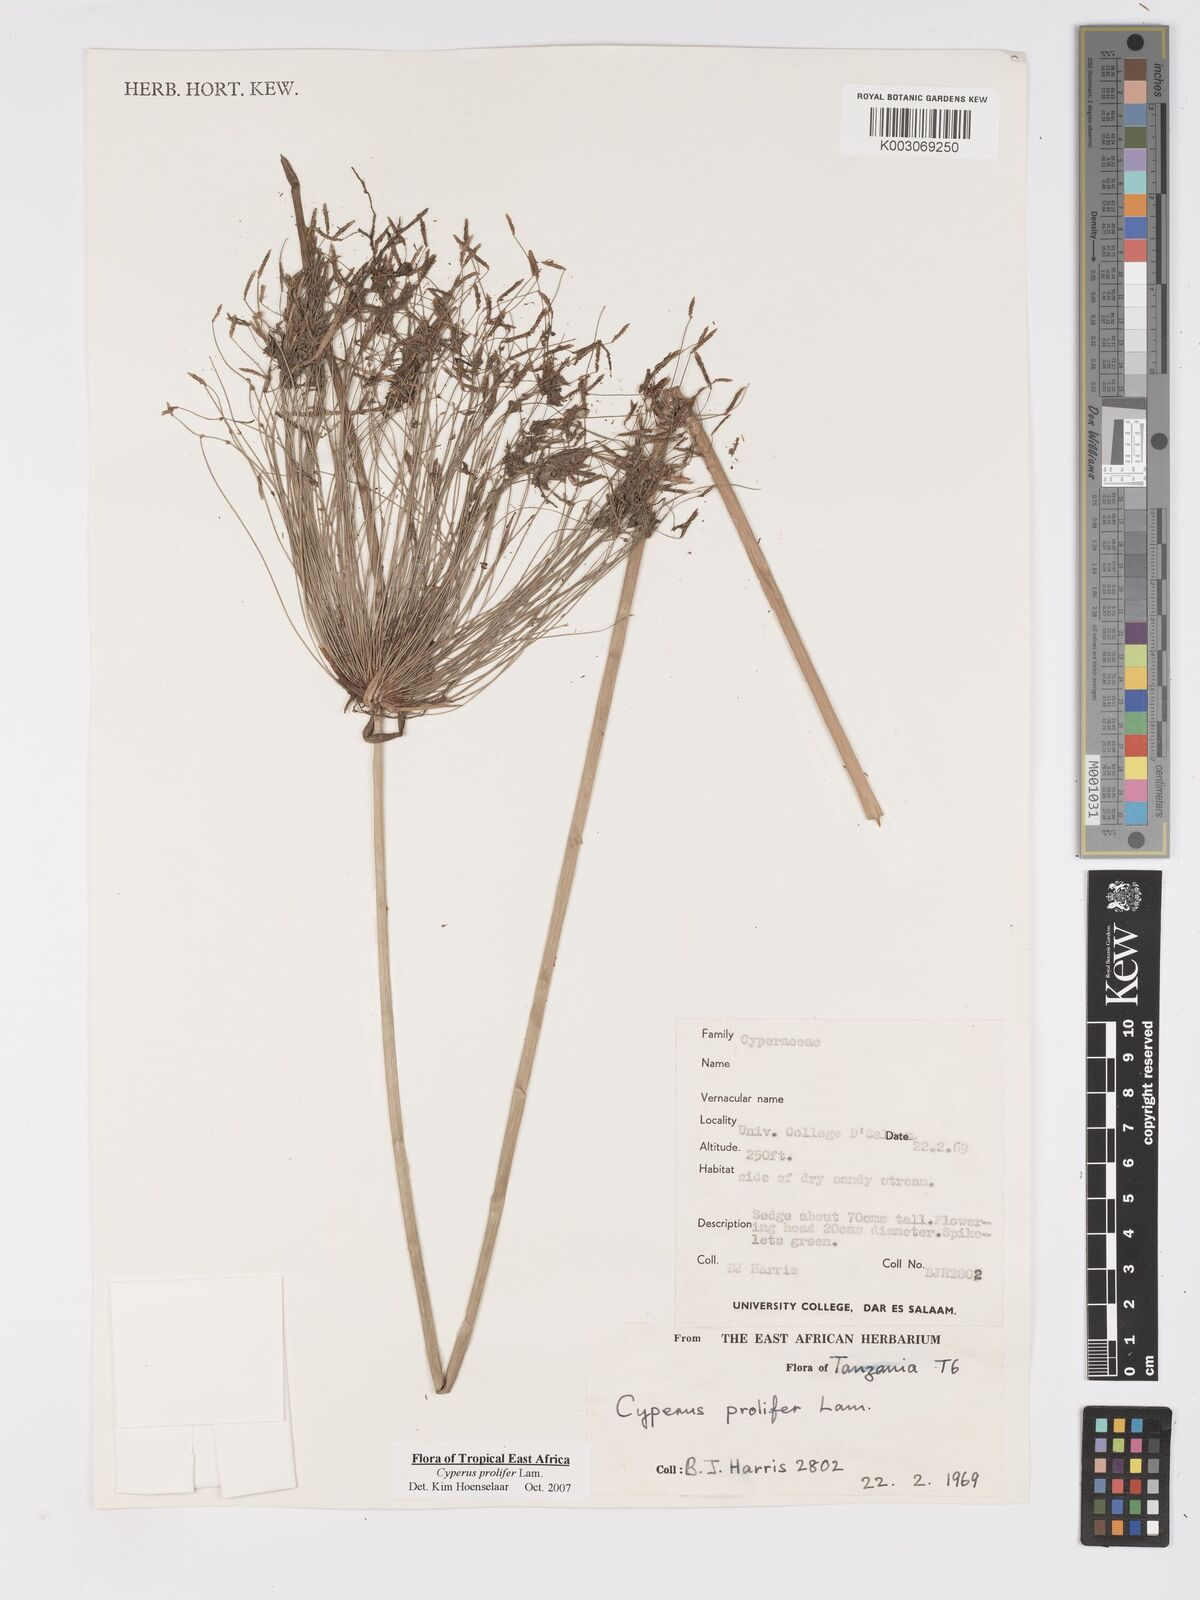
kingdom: Plantae
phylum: Tracheophyta
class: Liliopsida
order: Poales
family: Cyperaceae
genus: Cyperus
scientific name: Cyperus prolifer
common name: Miniature flatsedge
